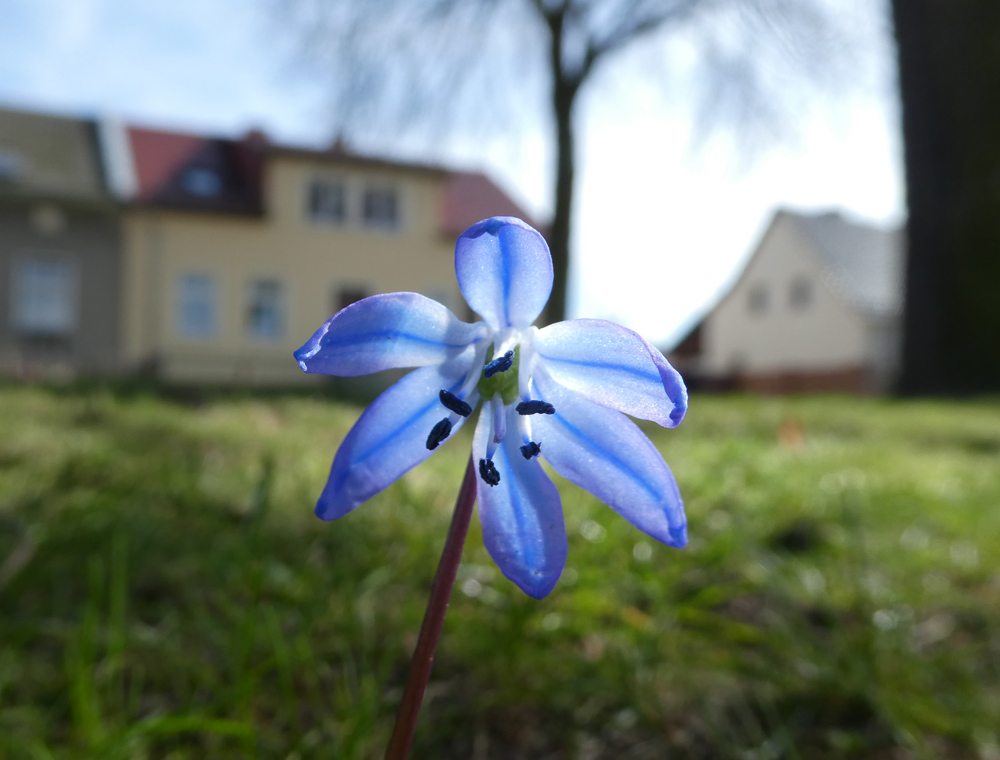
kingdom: Plantae
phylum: Tracheophyta
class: Liliopsida
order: Asparagales
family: Asparagaceae
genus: Scilla
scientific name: Scilla siberica
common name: Siberian squill
